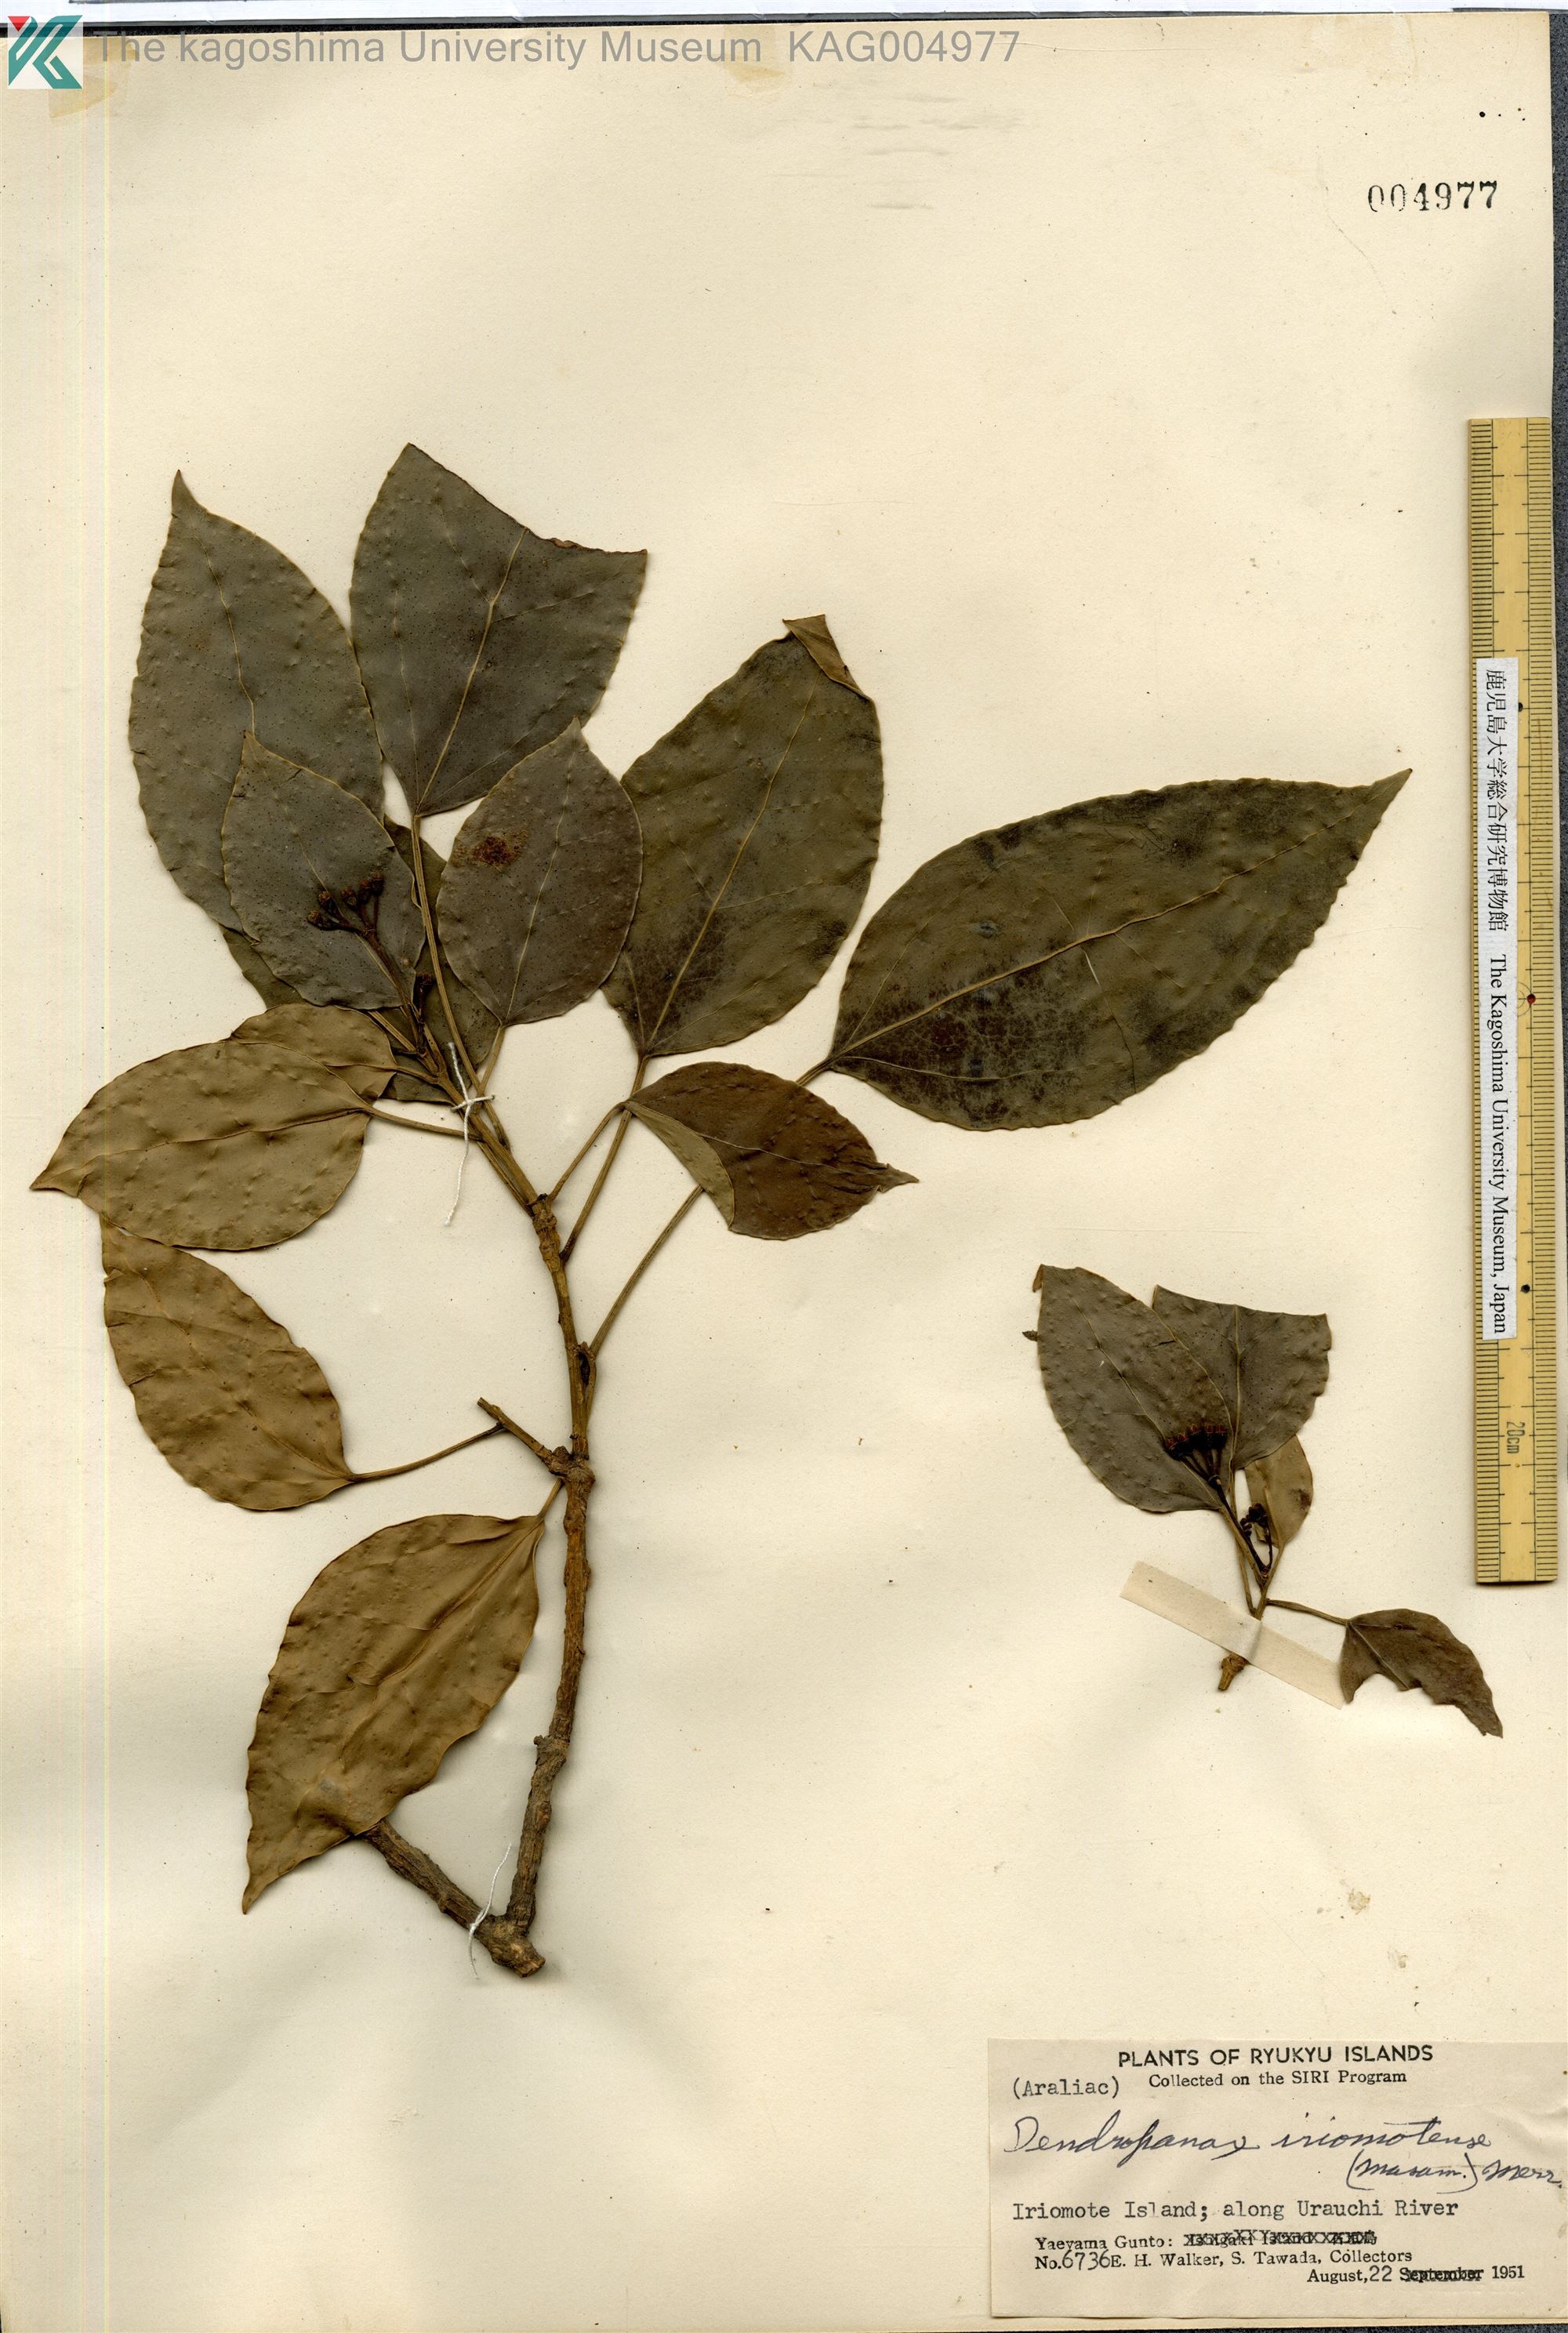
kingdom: Plantae
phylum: Tracheophyta
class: Magnoliopsida
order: Apiales
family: Araliaceae
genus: Dendropanax
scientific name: Dendropanax trifidus
